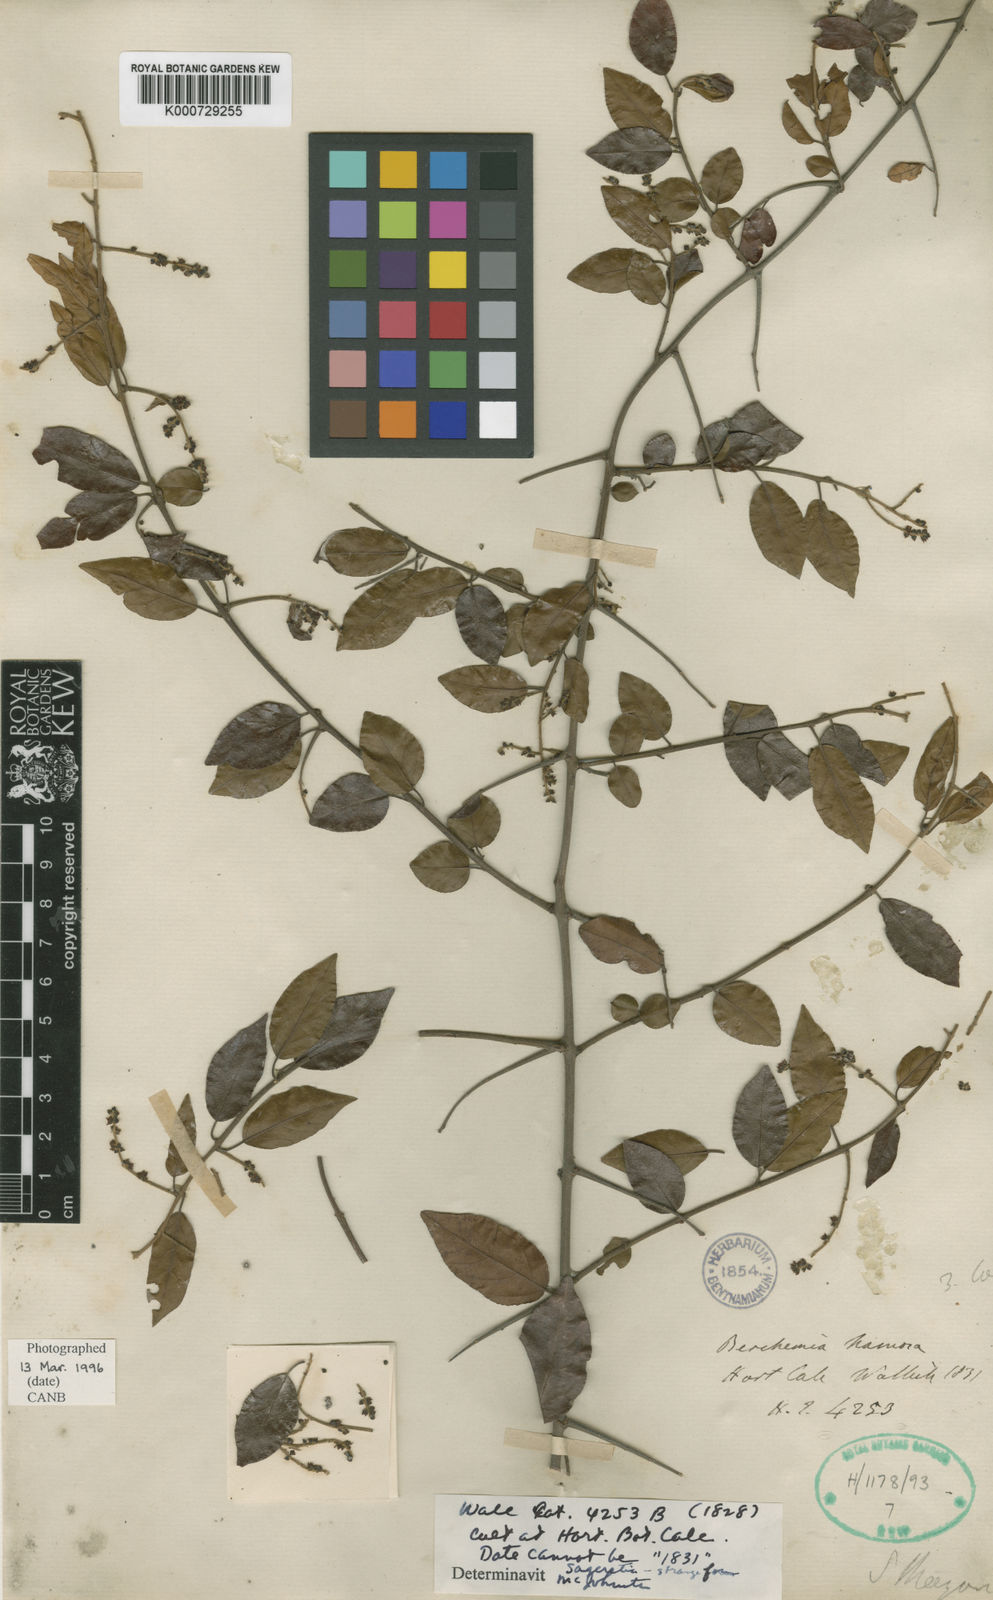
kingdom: Plantae
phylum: Tracheophyta
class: Magnoliopsida
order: Rosales
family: Rhamnaceae
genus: Sageretia
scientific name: Sageretia hamosa
